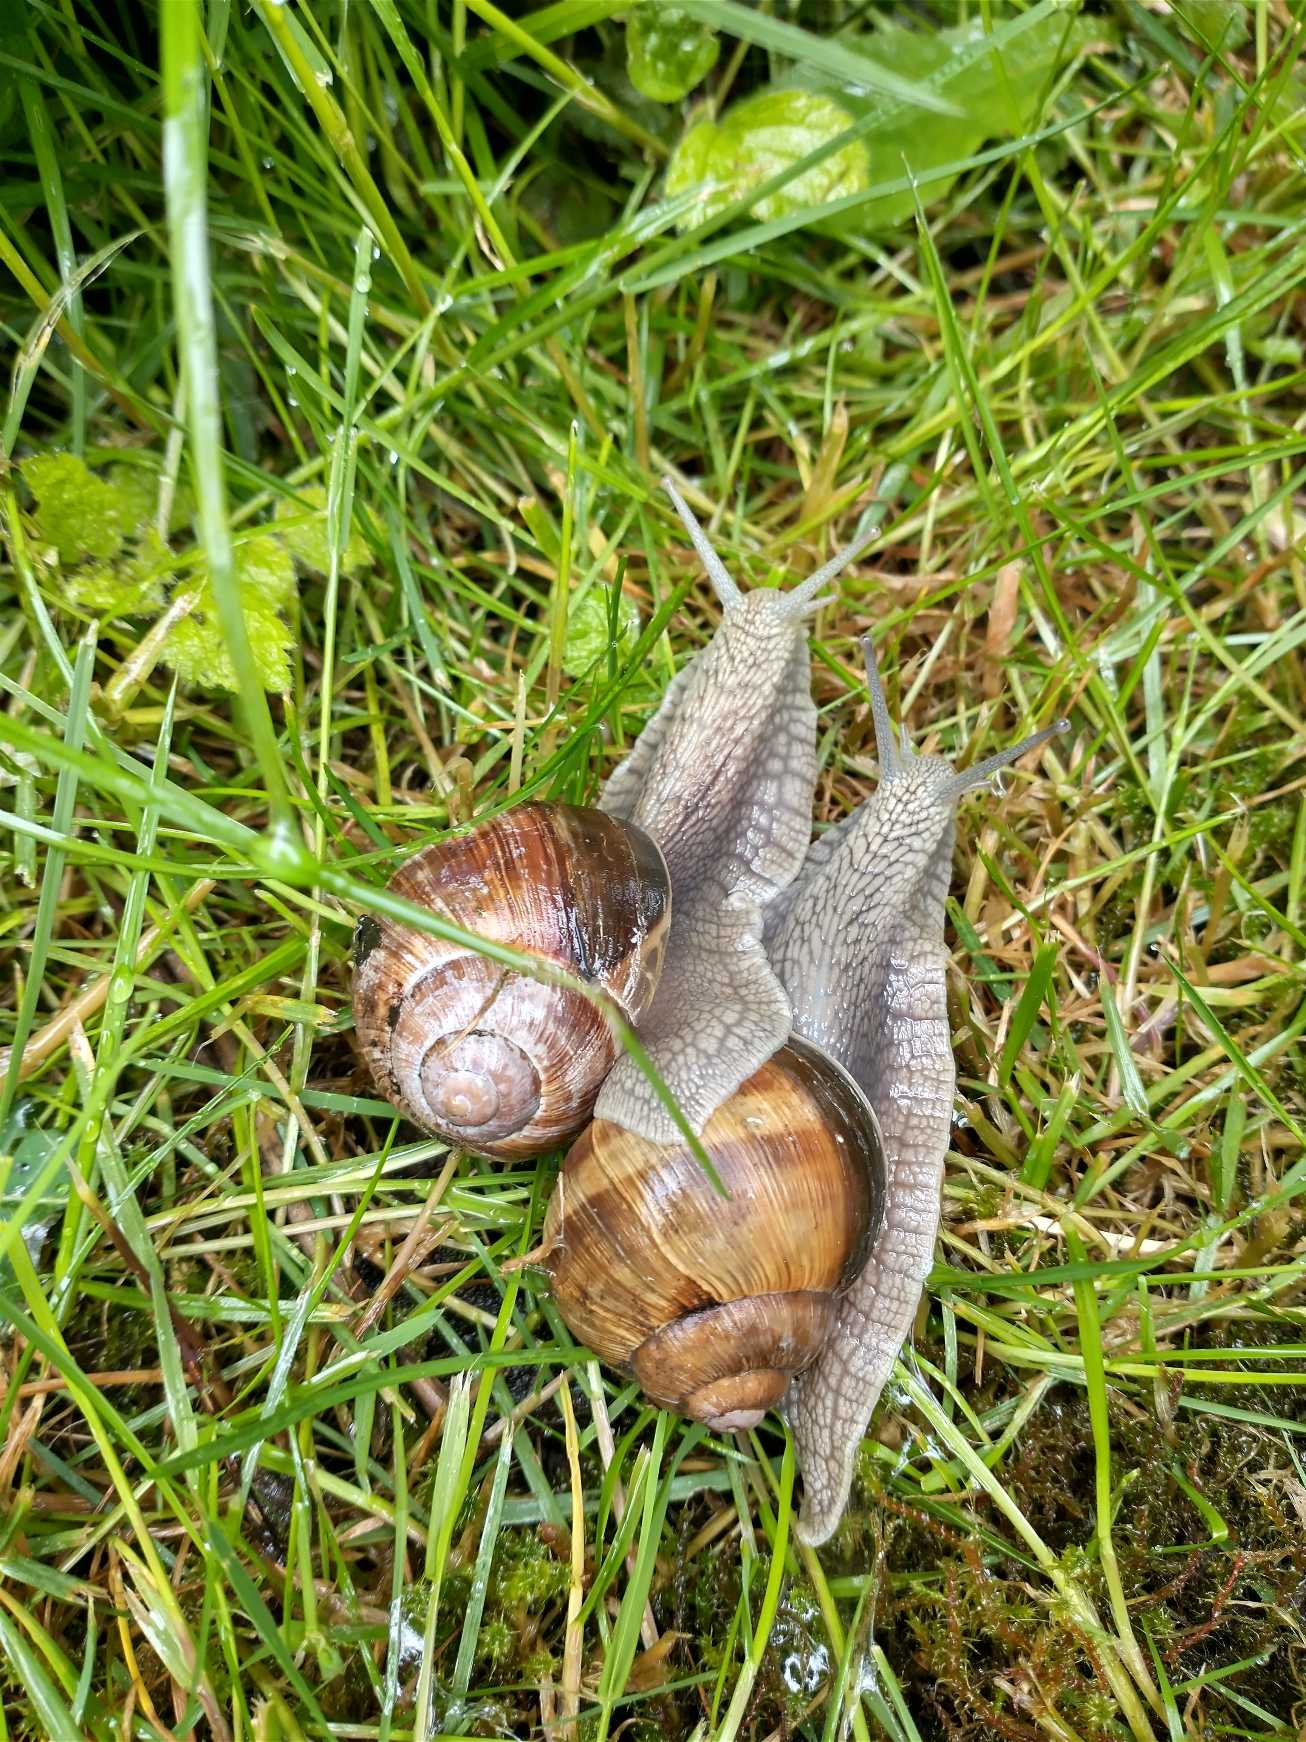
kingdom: Animalia
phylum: Mollusca
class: Gastropoda
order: Stylommatophora
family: Helicidae
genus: Helix
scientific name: Helix pomatia
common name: Vinbjergsnegl
